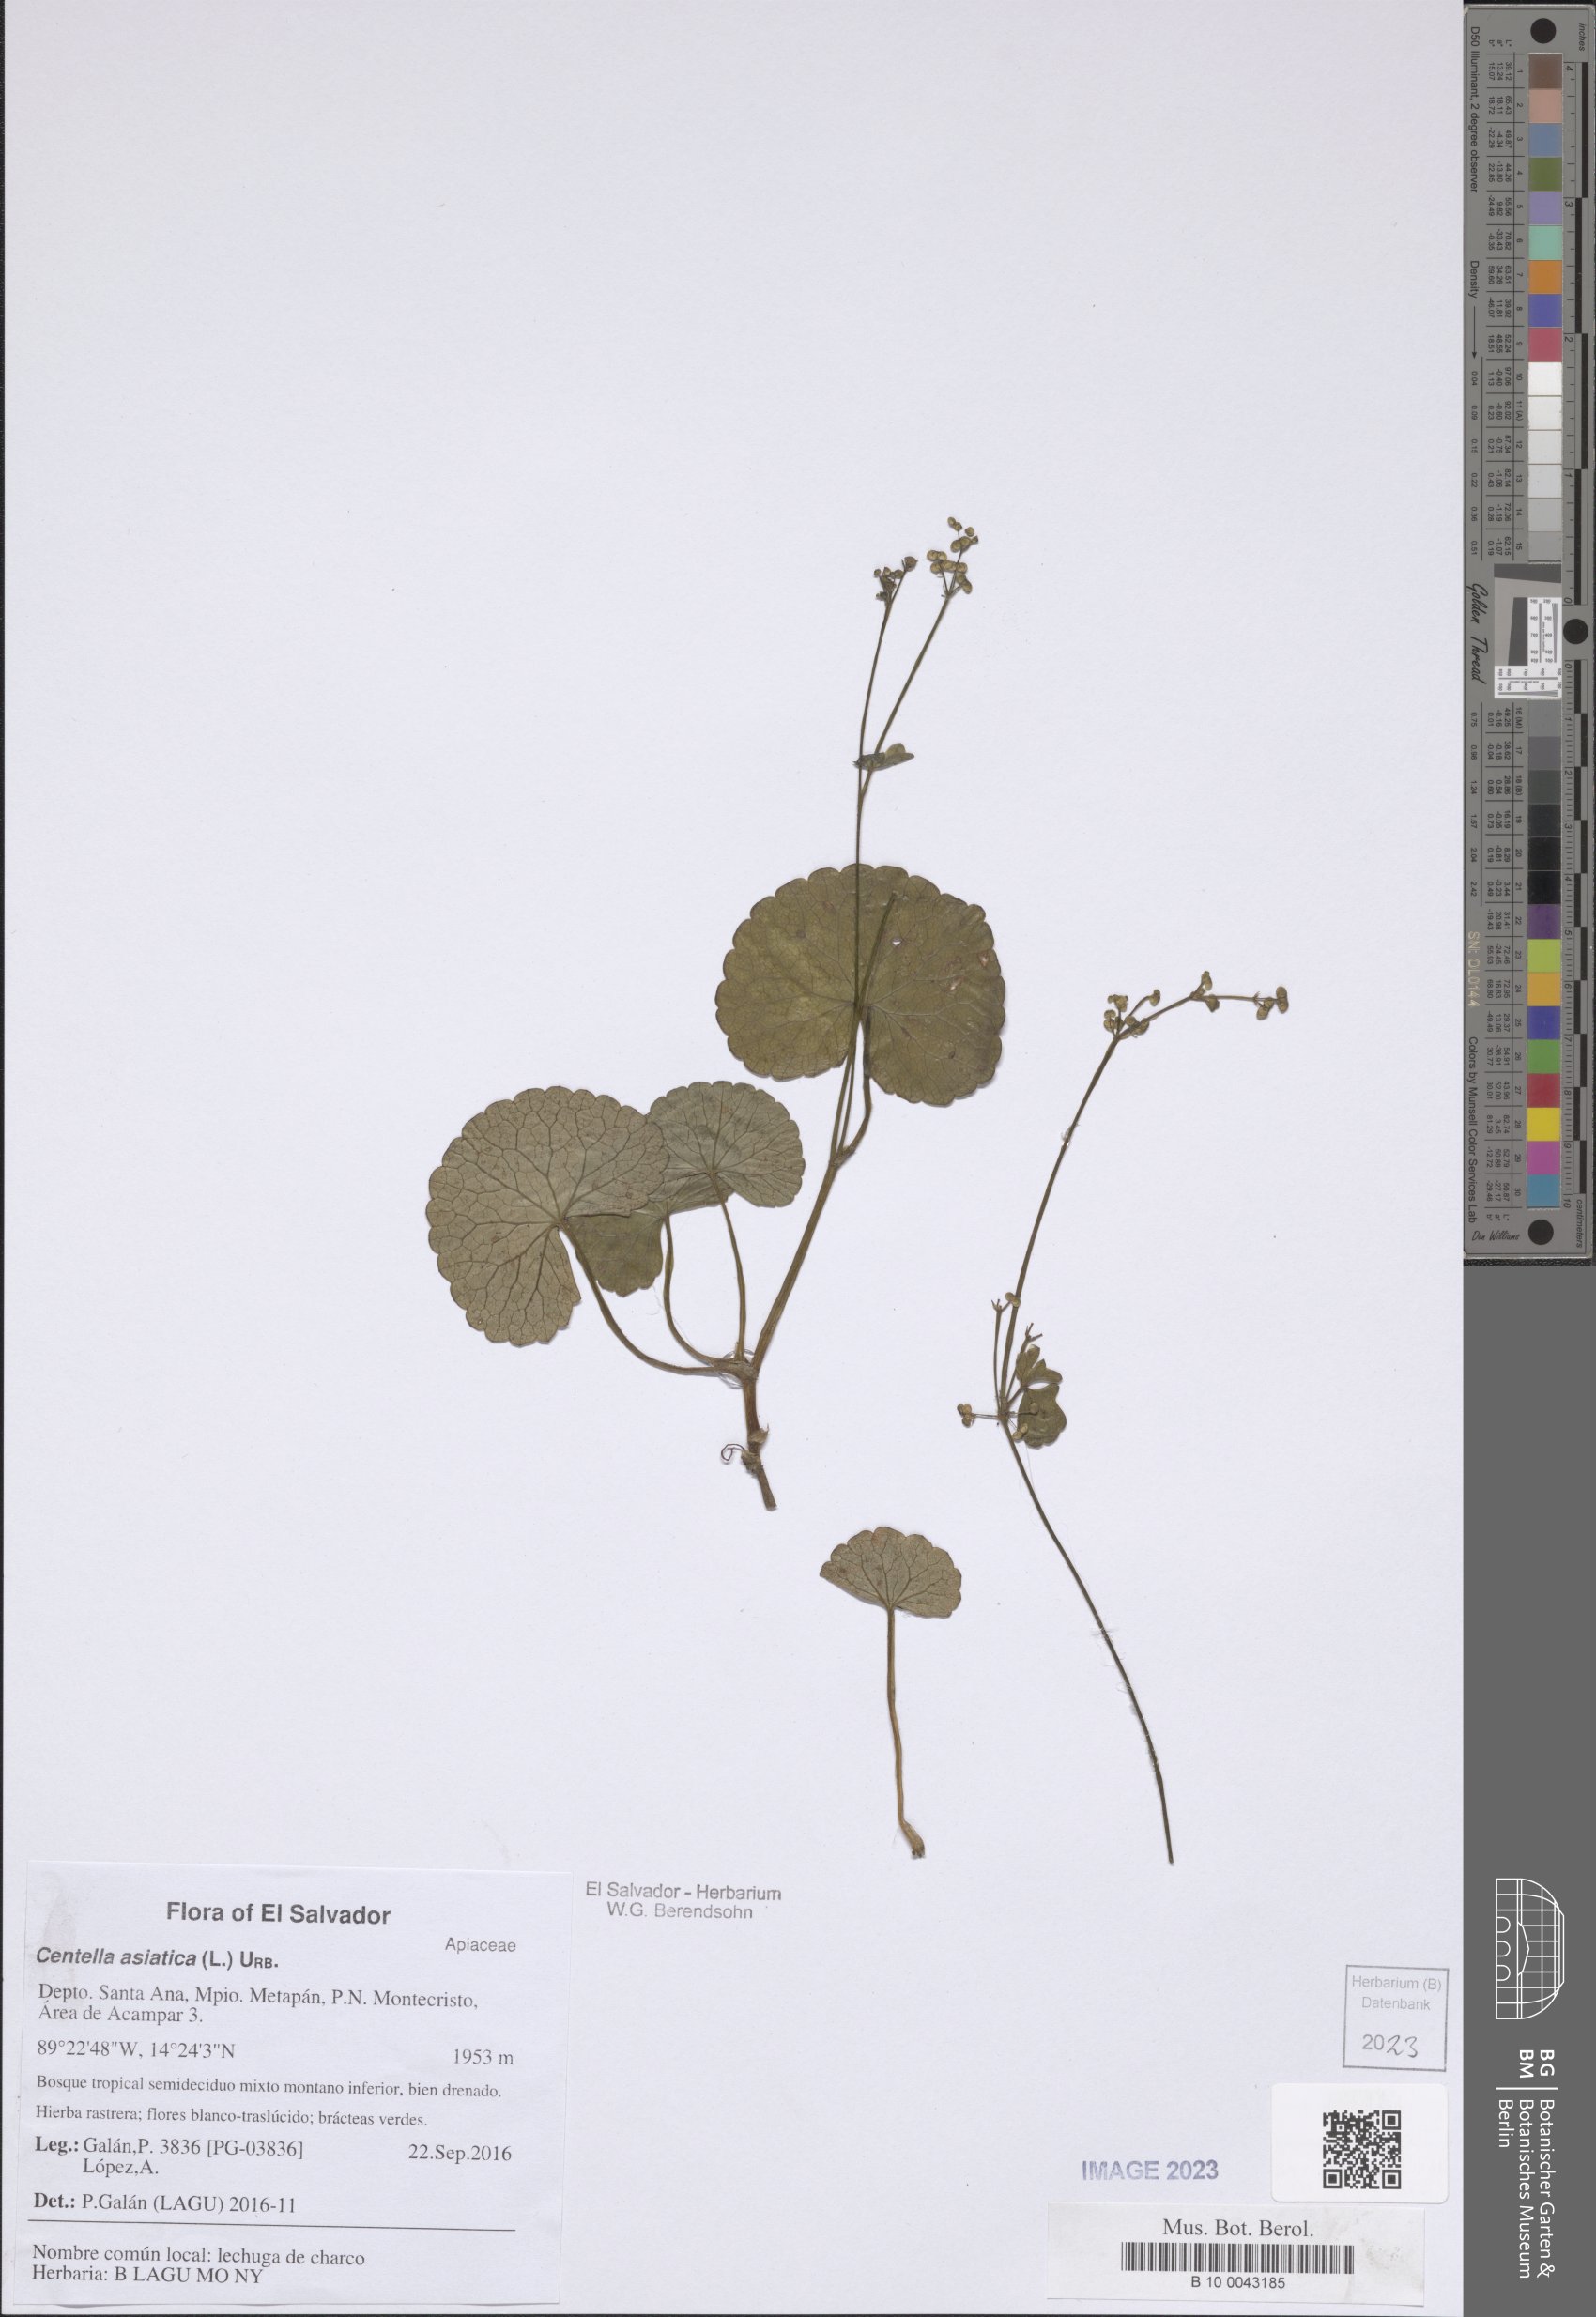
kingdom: Plantae
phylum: Tracheophyta
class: Magnoliopsida
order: Apiales
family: Apiaceae
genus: Centella
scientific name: Centella asiatica
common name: Spadeleaf
